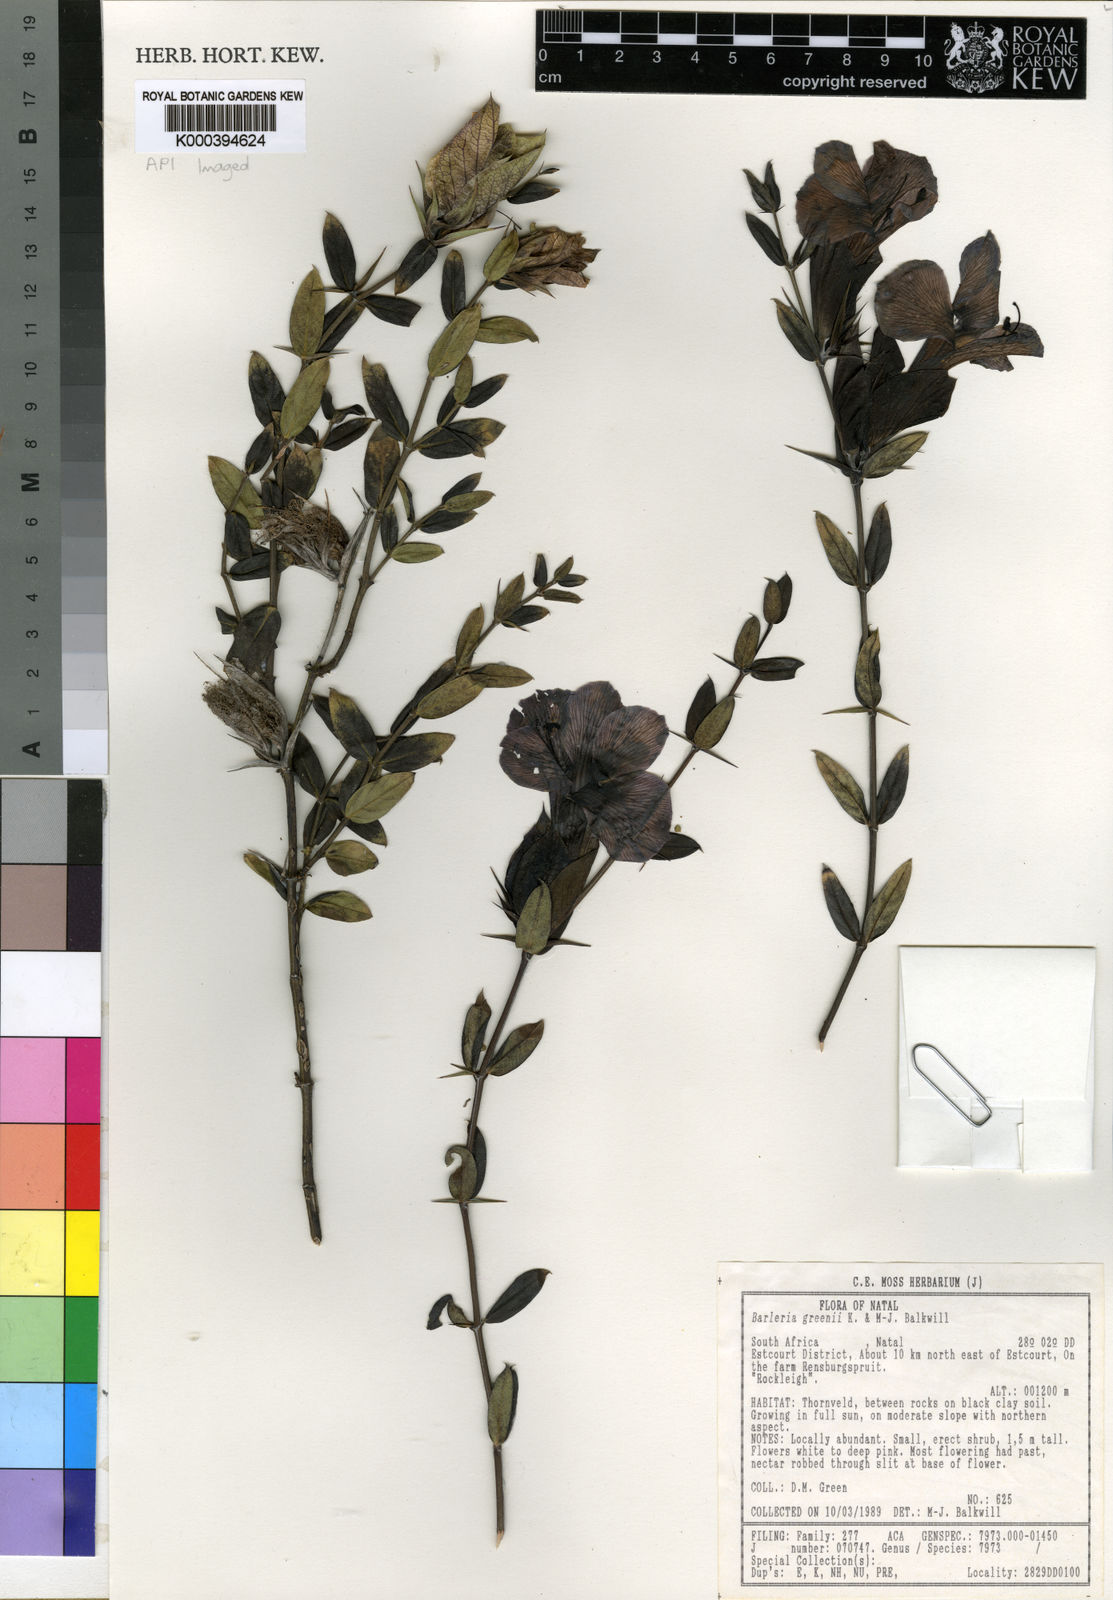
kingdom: Plantae
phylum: Tracheophyta
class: Magnoliopsida
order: Lamiales
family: Acanthaceae
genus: Barleria
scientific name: Barleria greenii
